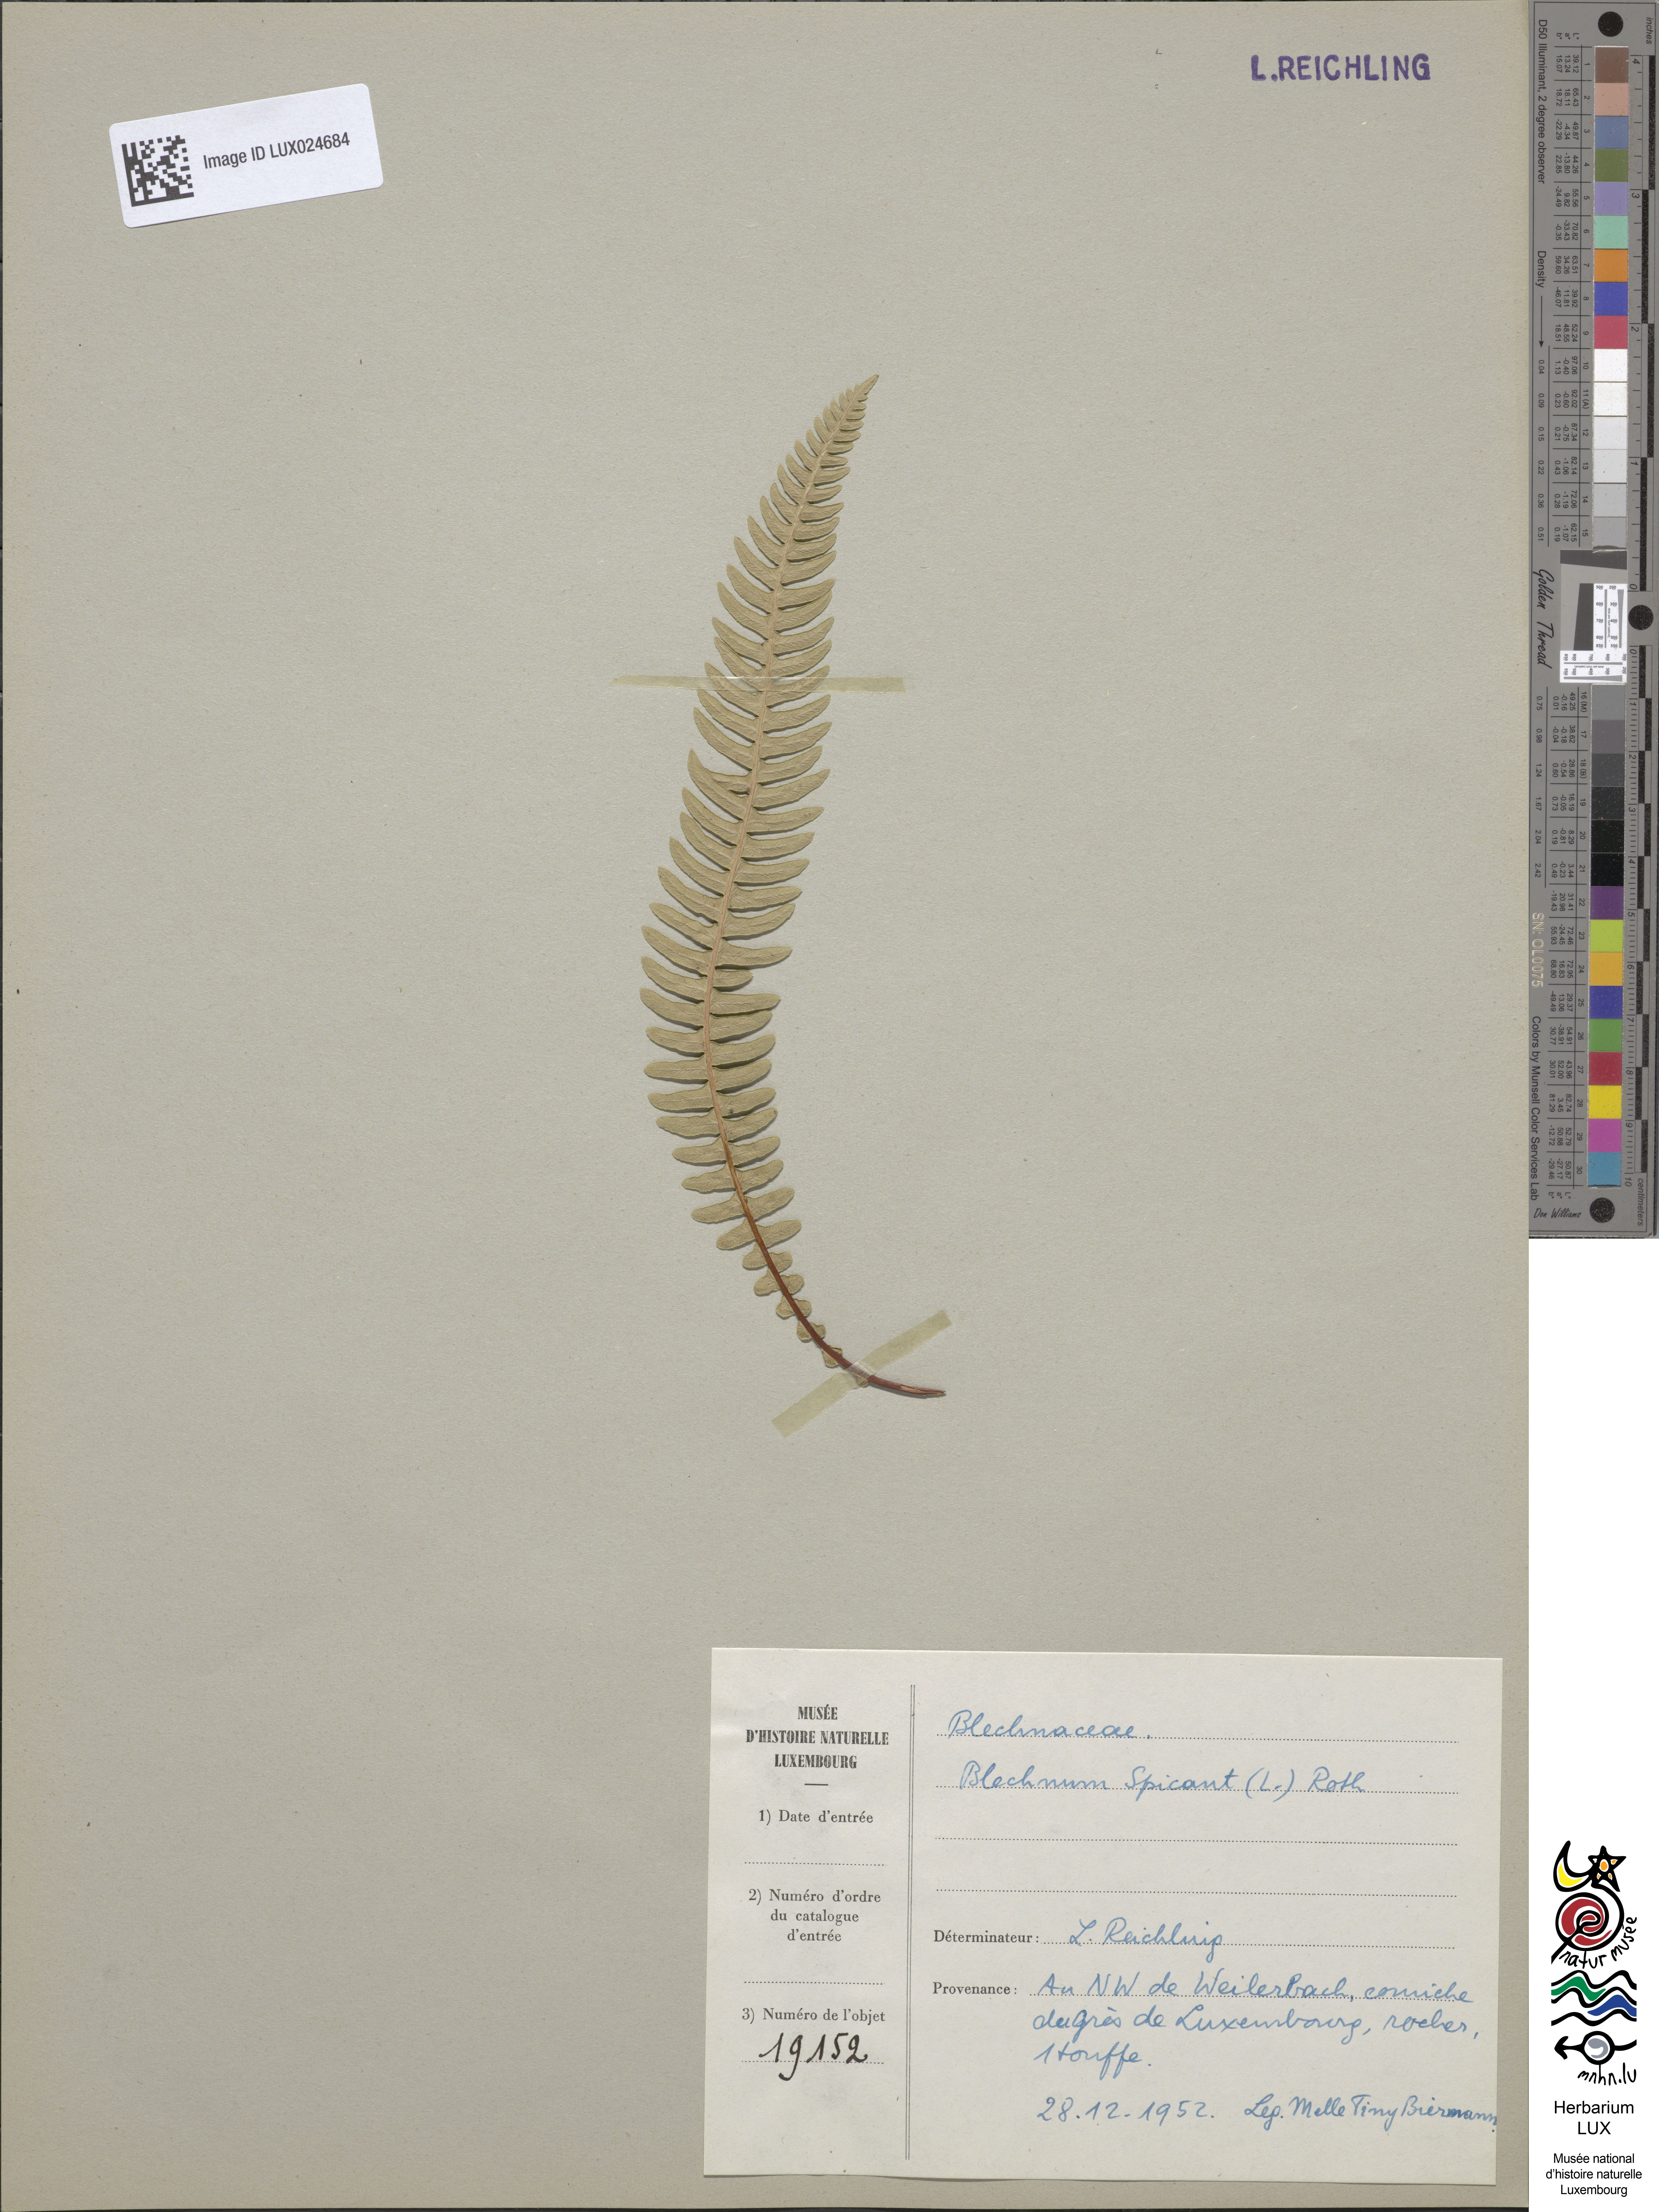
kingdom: Plantae
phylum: Tracheophyta
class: Polypodiopsida
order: Polypodiales
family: Blechnaceae
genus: Struthiopteris
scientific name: Struthiopteris spicant
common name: Deer fern
